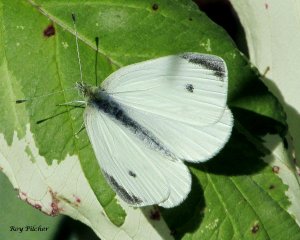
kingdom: Animalia
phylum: Arthropoda
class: Insecta
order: Lepidoptera
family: Pieridae
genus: Pieris
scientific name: Pieris rapae
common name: Cabbage White
